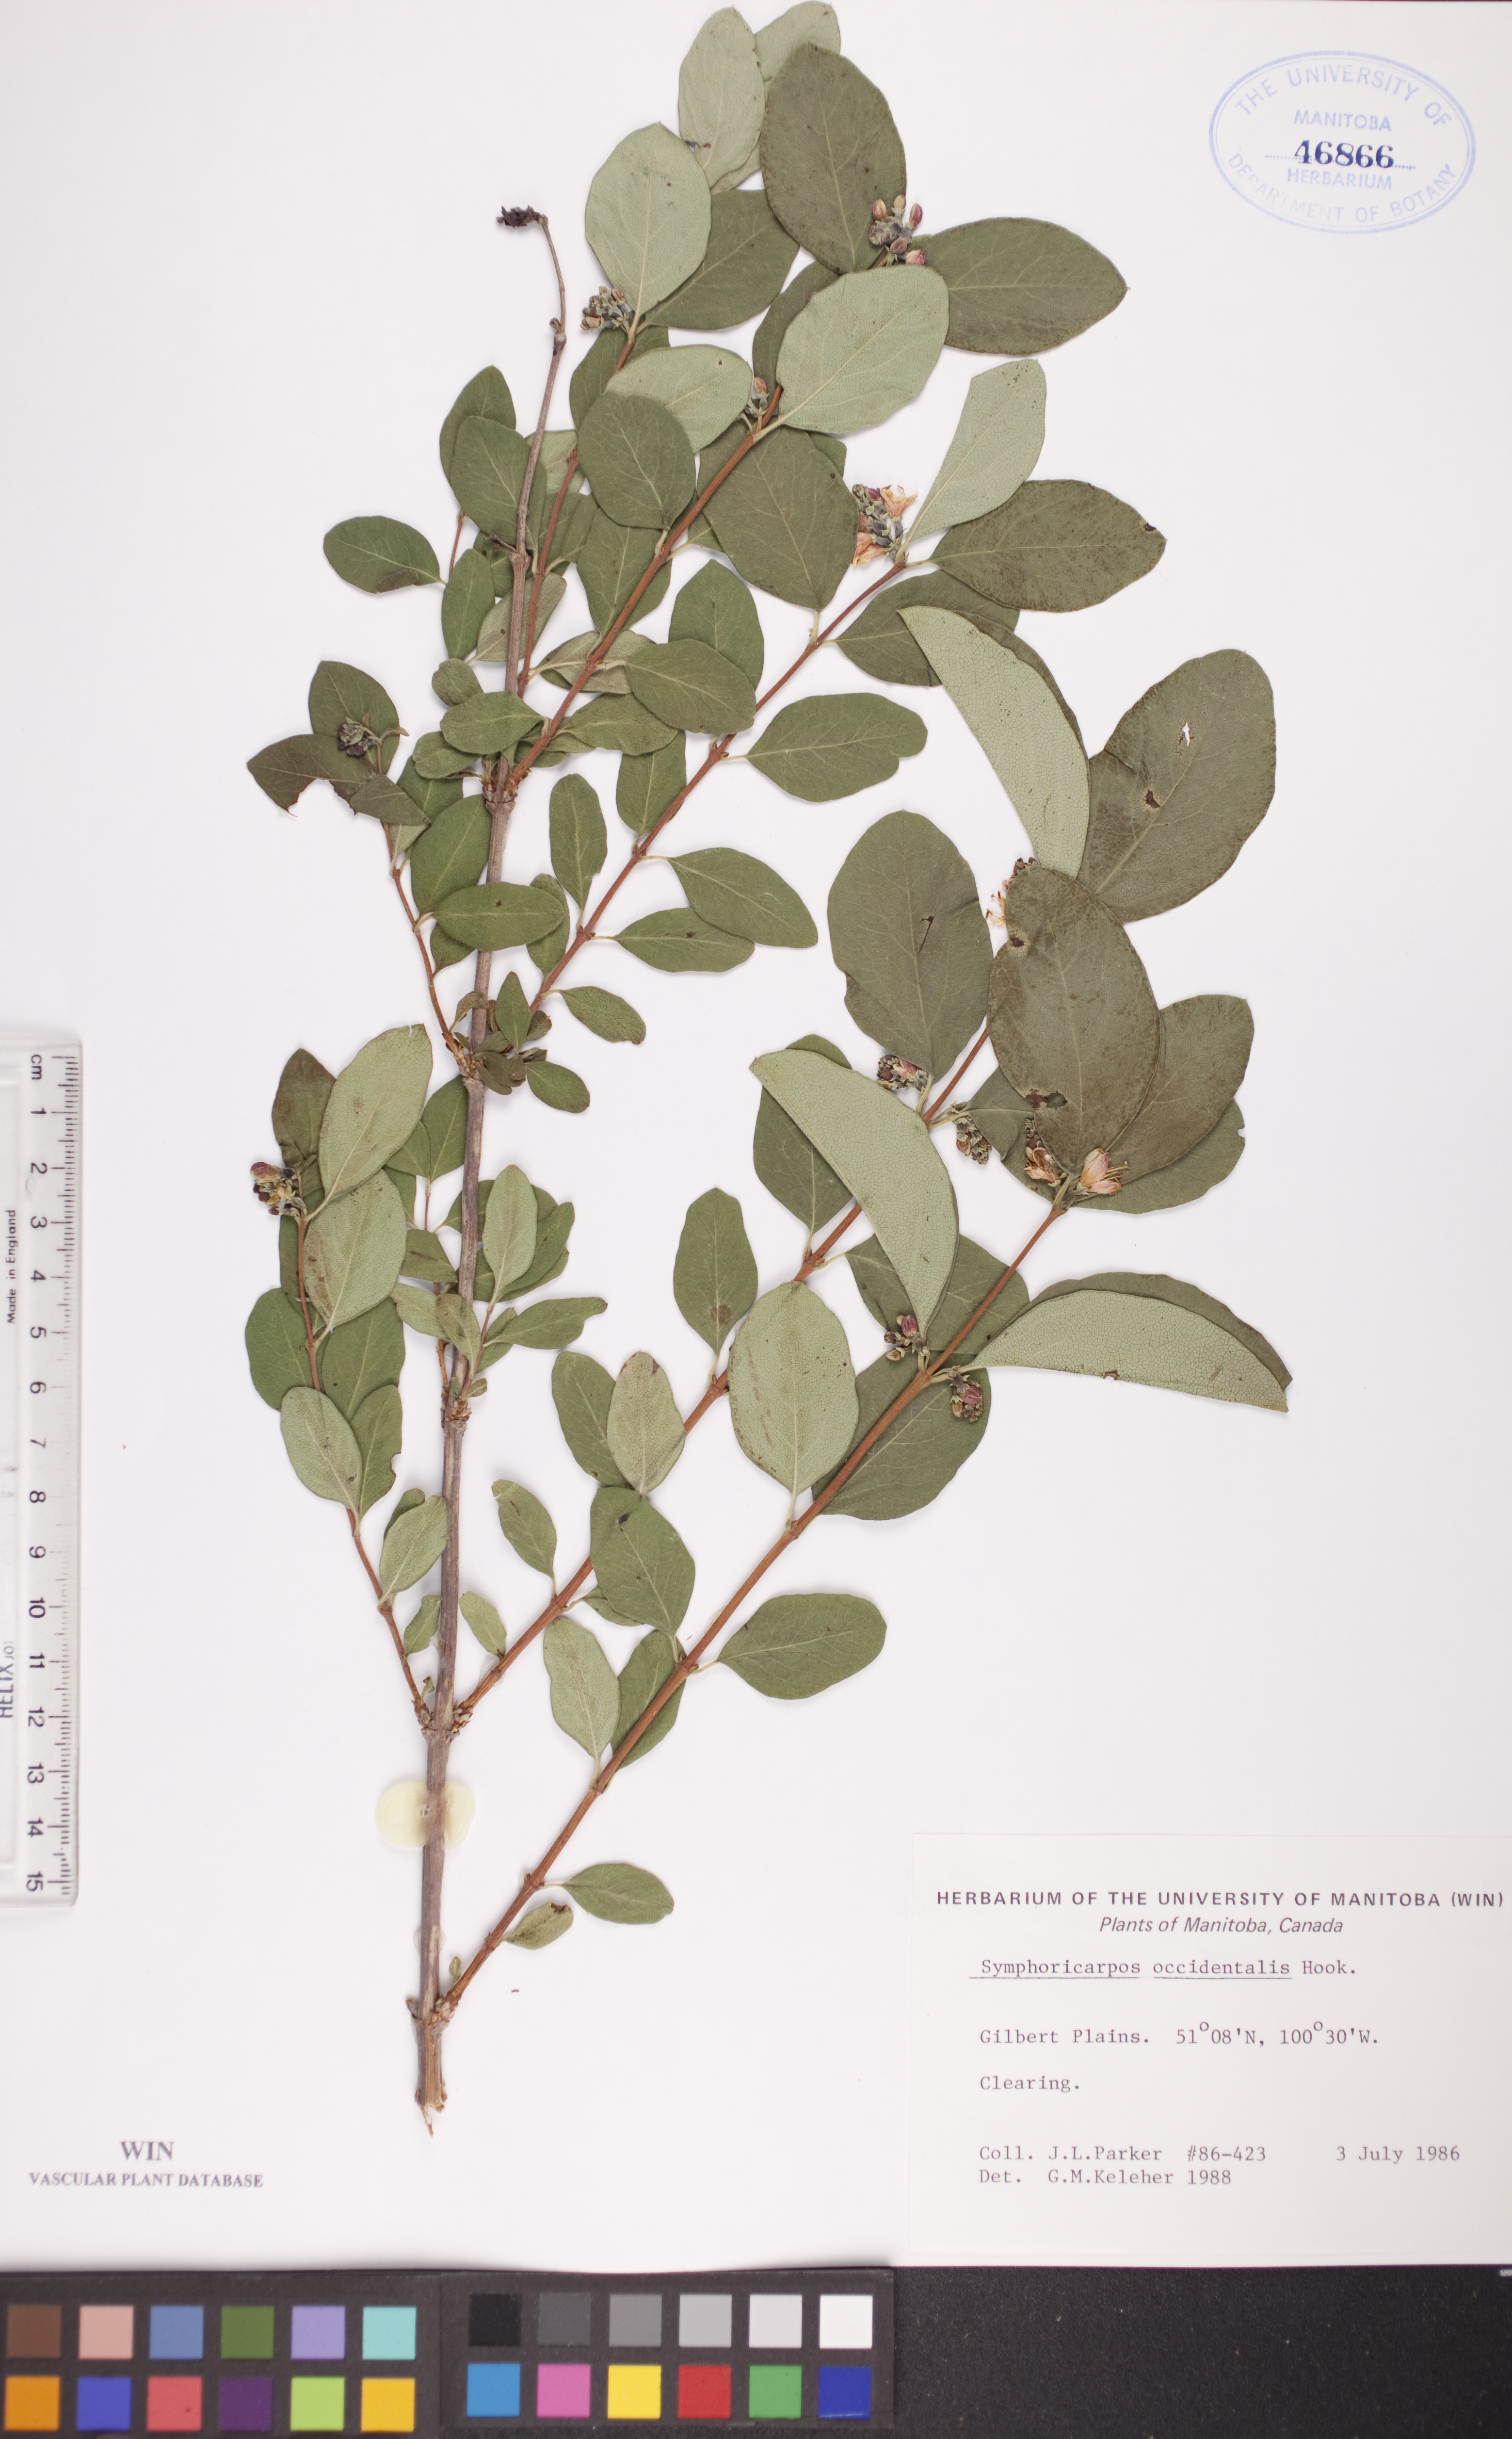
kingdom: Plantae
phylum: Tracheophyta
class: Magnoliopsida
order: Dipsacales
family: Caprifoliaceae
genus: Symphoricarpos
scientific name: Symphoricarpos occidentalis
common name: Wolfberry
